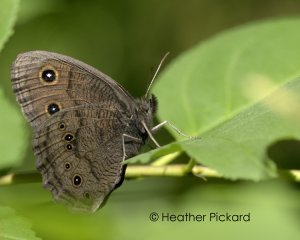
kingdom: Animalia
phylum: Arthropoda
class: Insecta
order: Lepidoptera
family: Nymphalidae
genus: Cercyonis
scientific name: Cercyonis pegala
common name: Common Wood-Nymph
